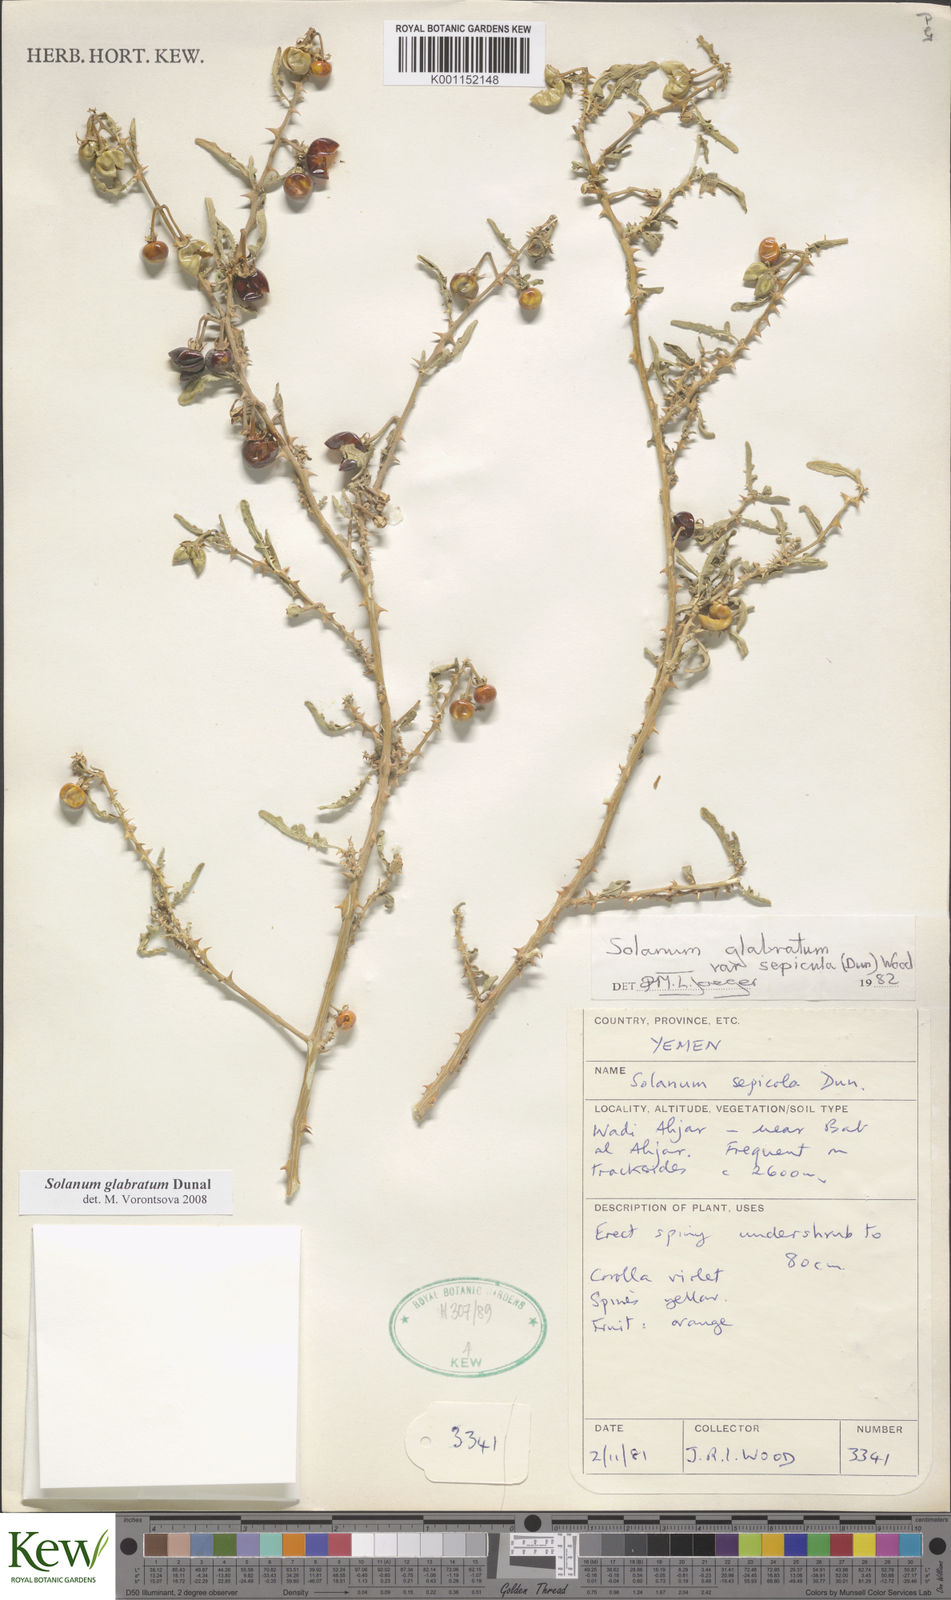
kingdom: Plantae
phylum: Tracheophyta
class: Magnoliopsida
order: Solanales
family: Solanaceae
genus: Solanum
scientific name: Solanum glabratum
